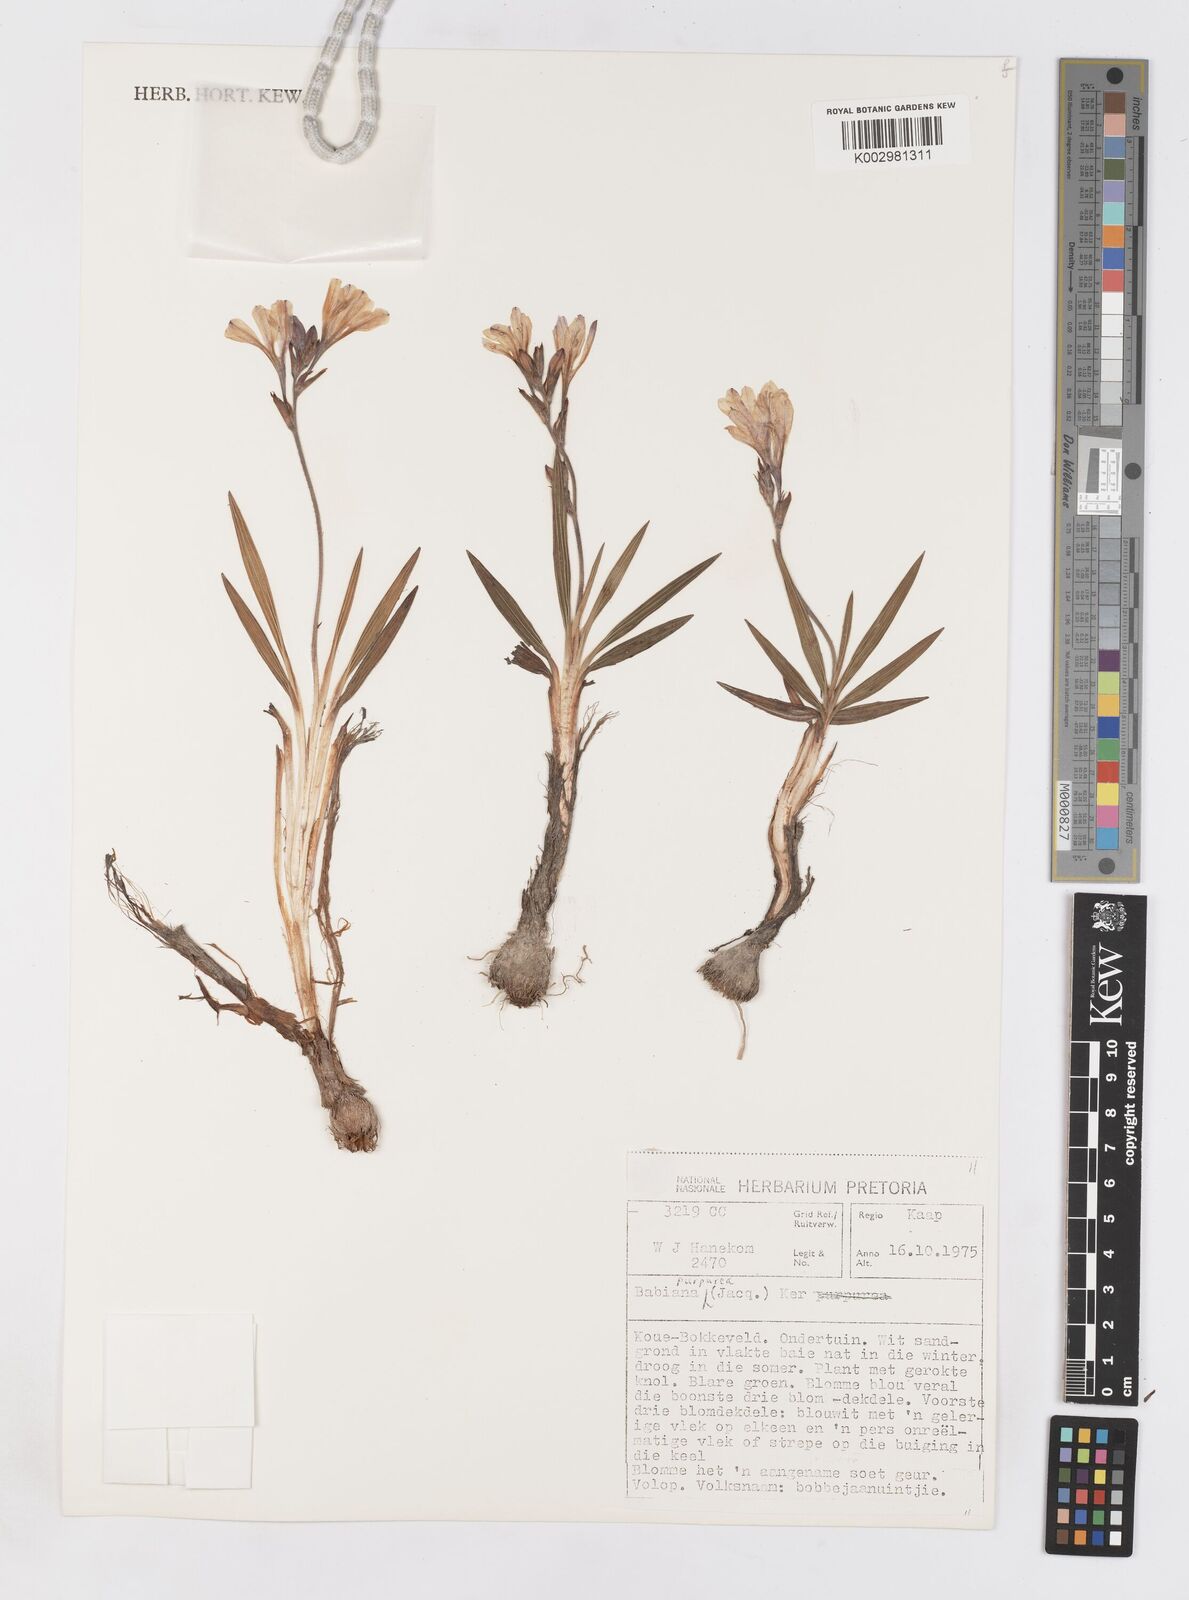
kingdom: Plantae
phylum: Tracheophyta
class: Liliopsida
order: Asparagales
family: Iridaceae
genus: Babiana
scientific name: Babiana purpurea
